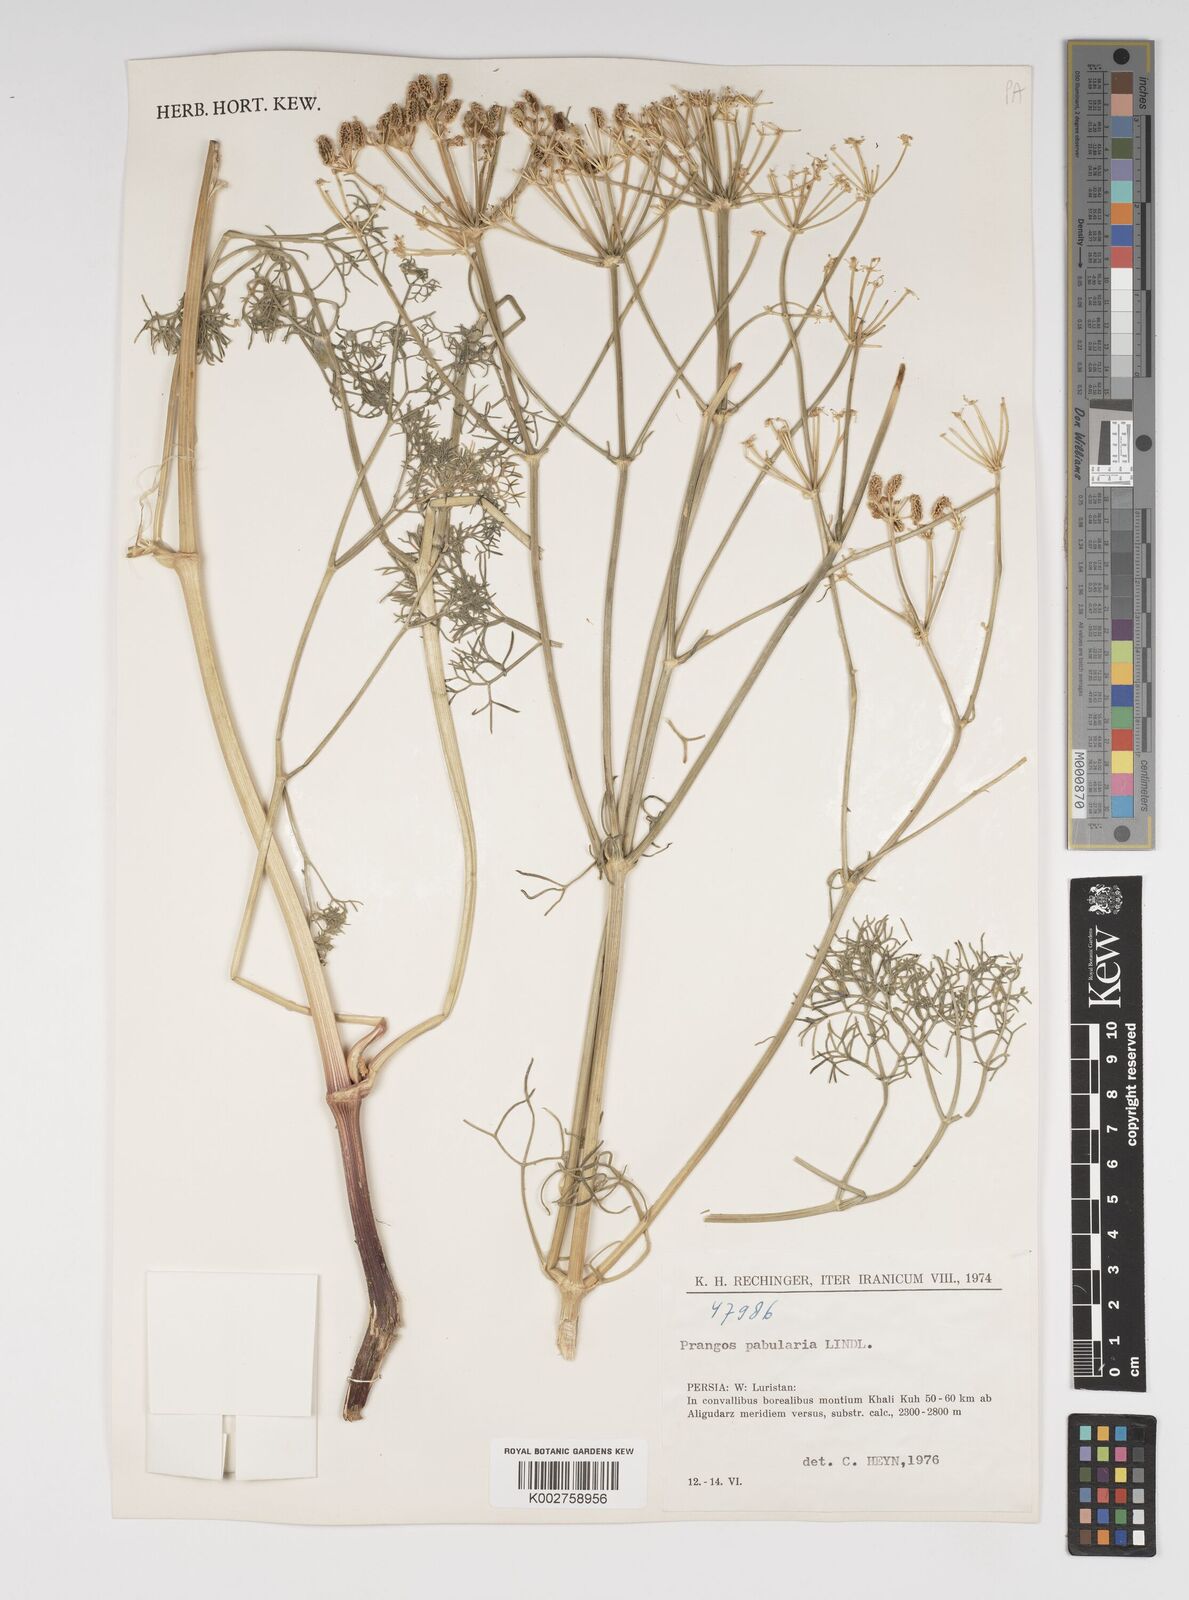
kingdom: Plantae
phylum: Tracheophyta
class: Magnoliopsida
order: Apiales
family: Apiaceae
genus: Prangos
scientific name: Prangos pabularia
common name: Yugan
